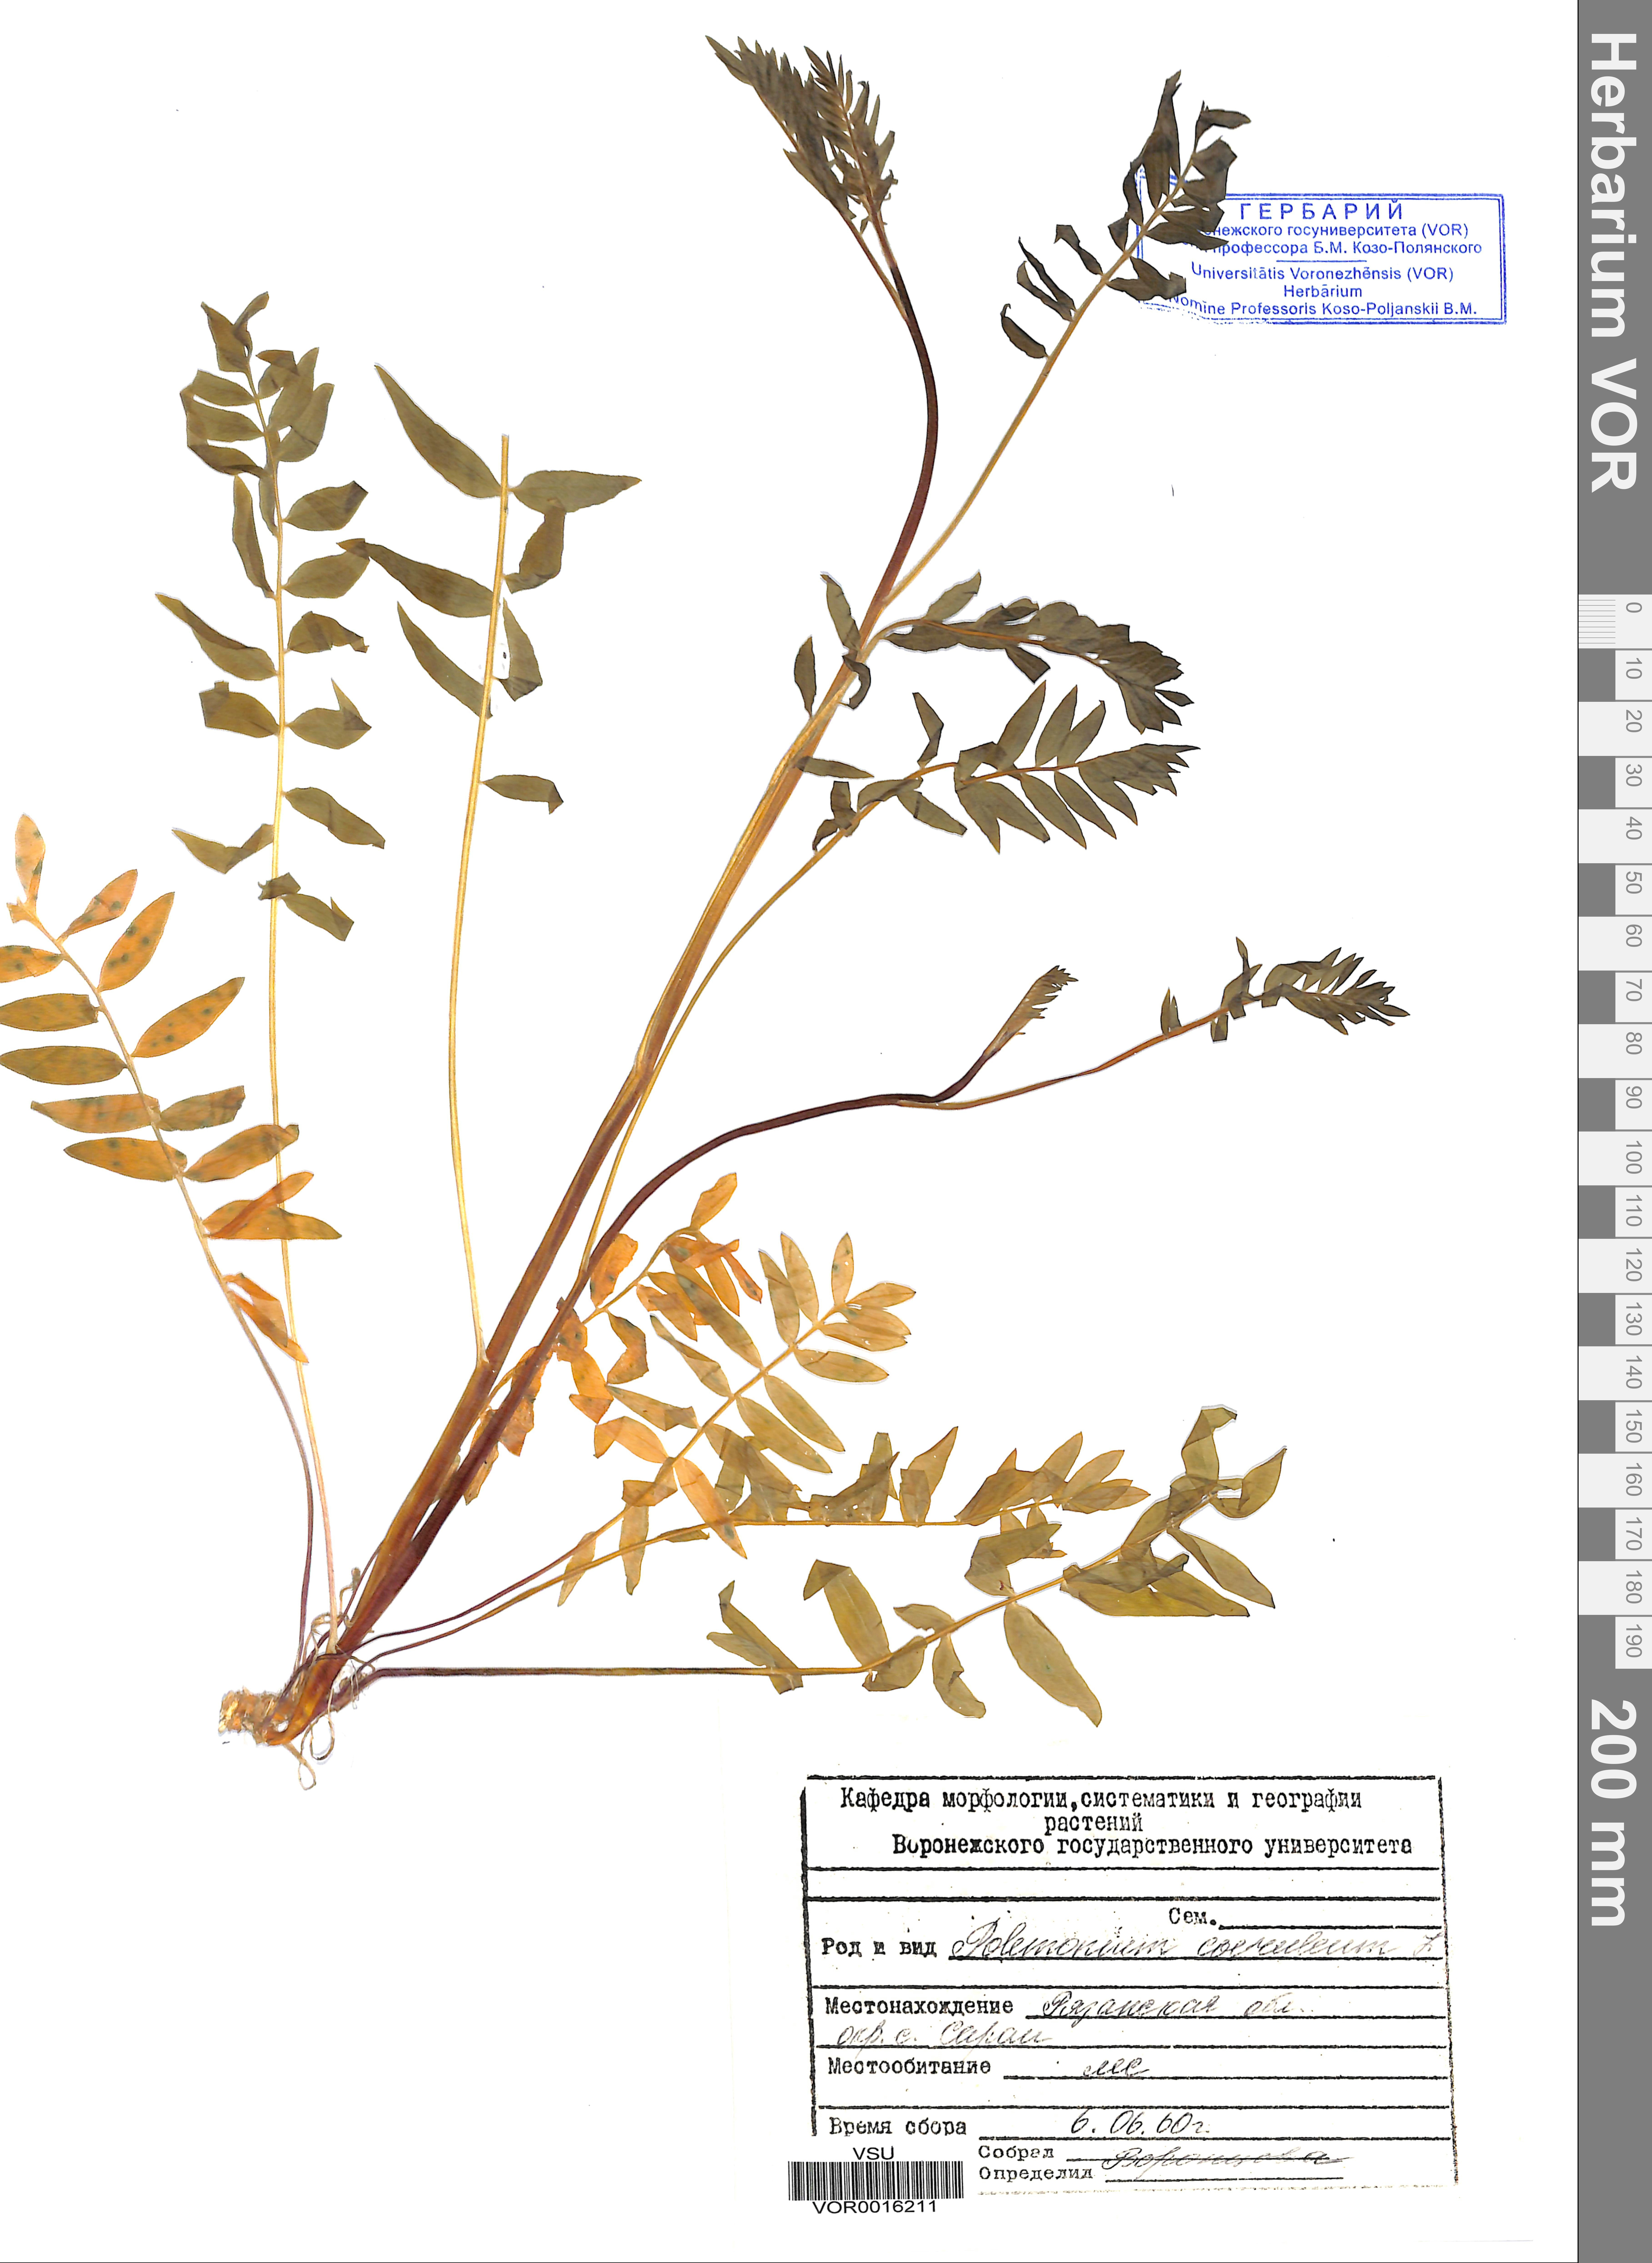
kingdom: Plantae
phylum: Tracheophyta
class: Magnoliopsida
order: Ericales
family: Polemoniaceae
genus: Polemonium
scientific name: Polemonium caeruleum
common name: Jacob's-ladder
